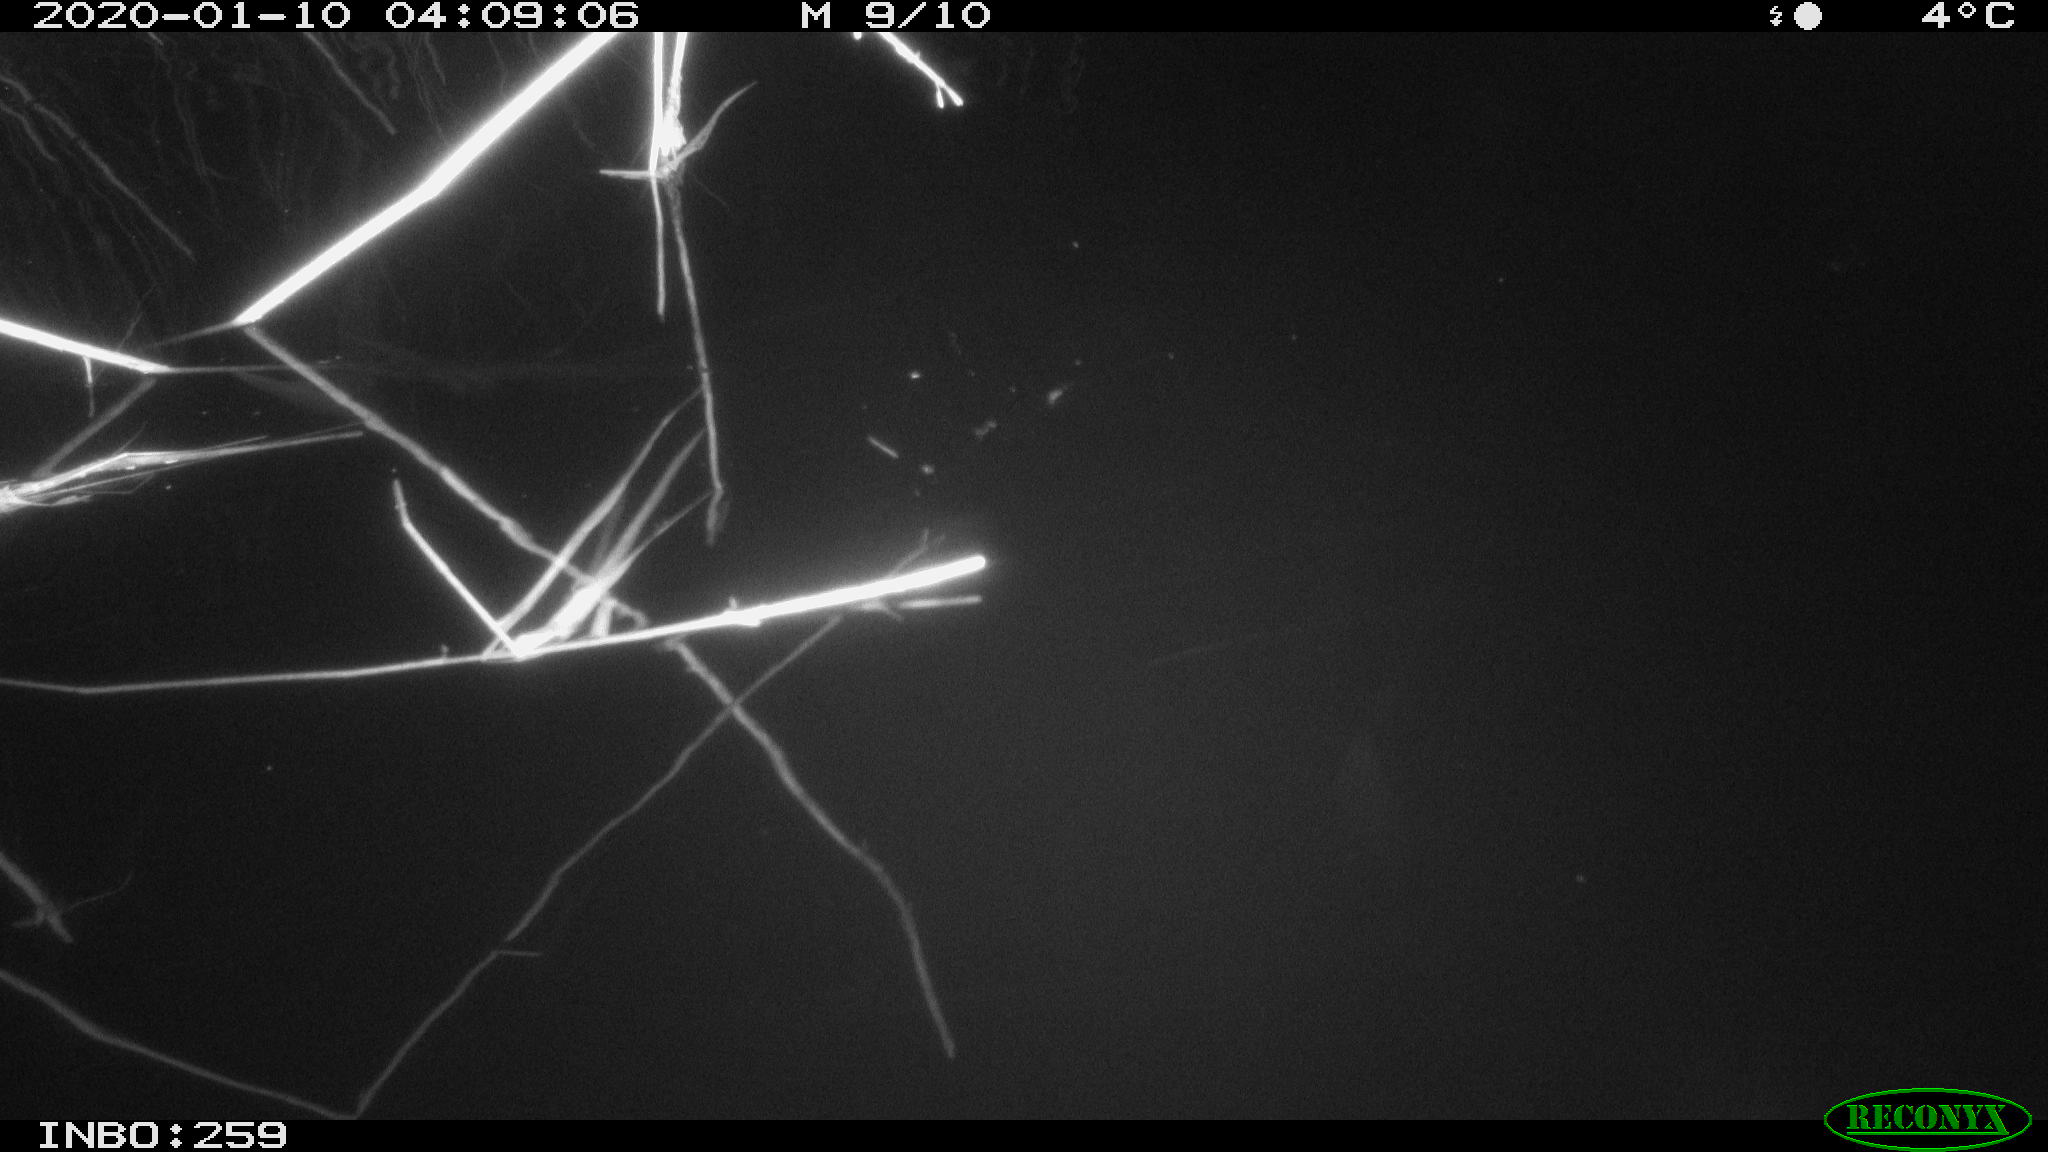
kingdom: Animalia
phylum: Chordata
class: Mammalia
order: Rodentia
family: Cricetidae
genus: Ondatra
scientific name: Ondatra zibethicus
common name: Muskrat
